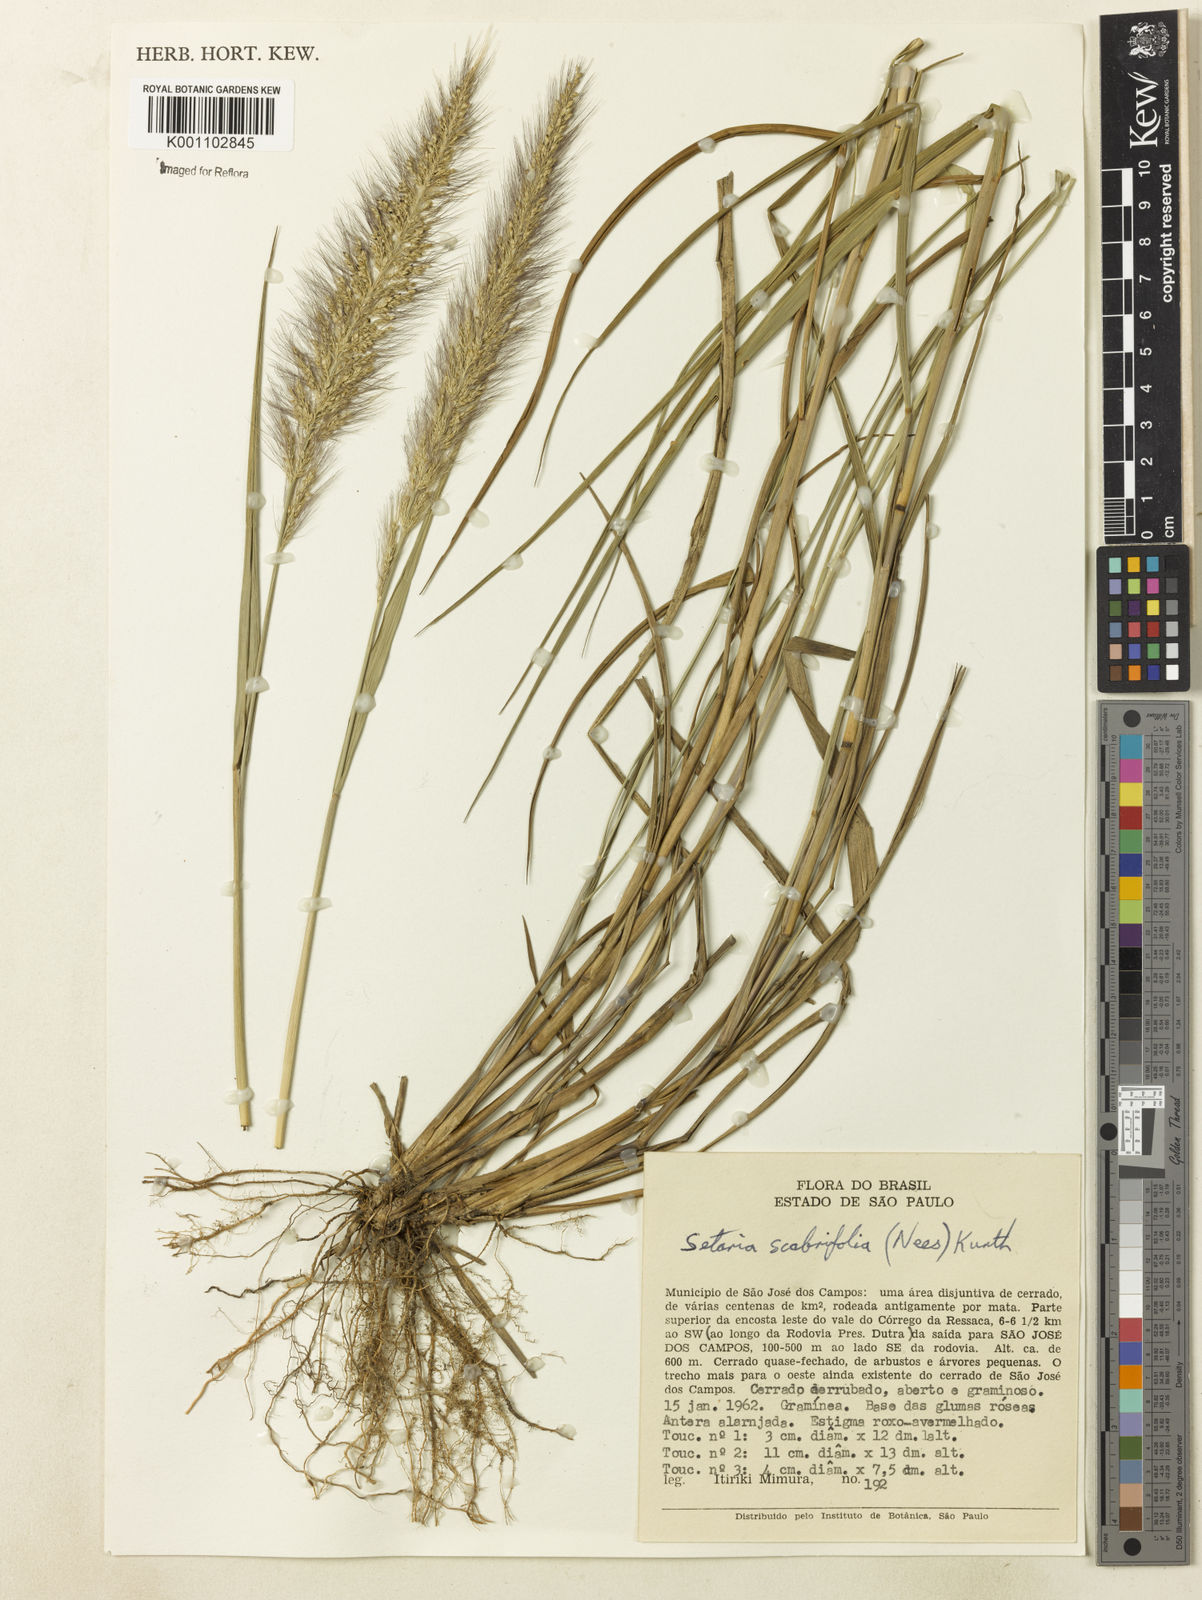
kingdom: Plantae
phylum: Tracheophyta
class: Liliopsida
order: Poales
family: Poaceae
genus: Setaria
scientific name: Setaria scabrifolia
